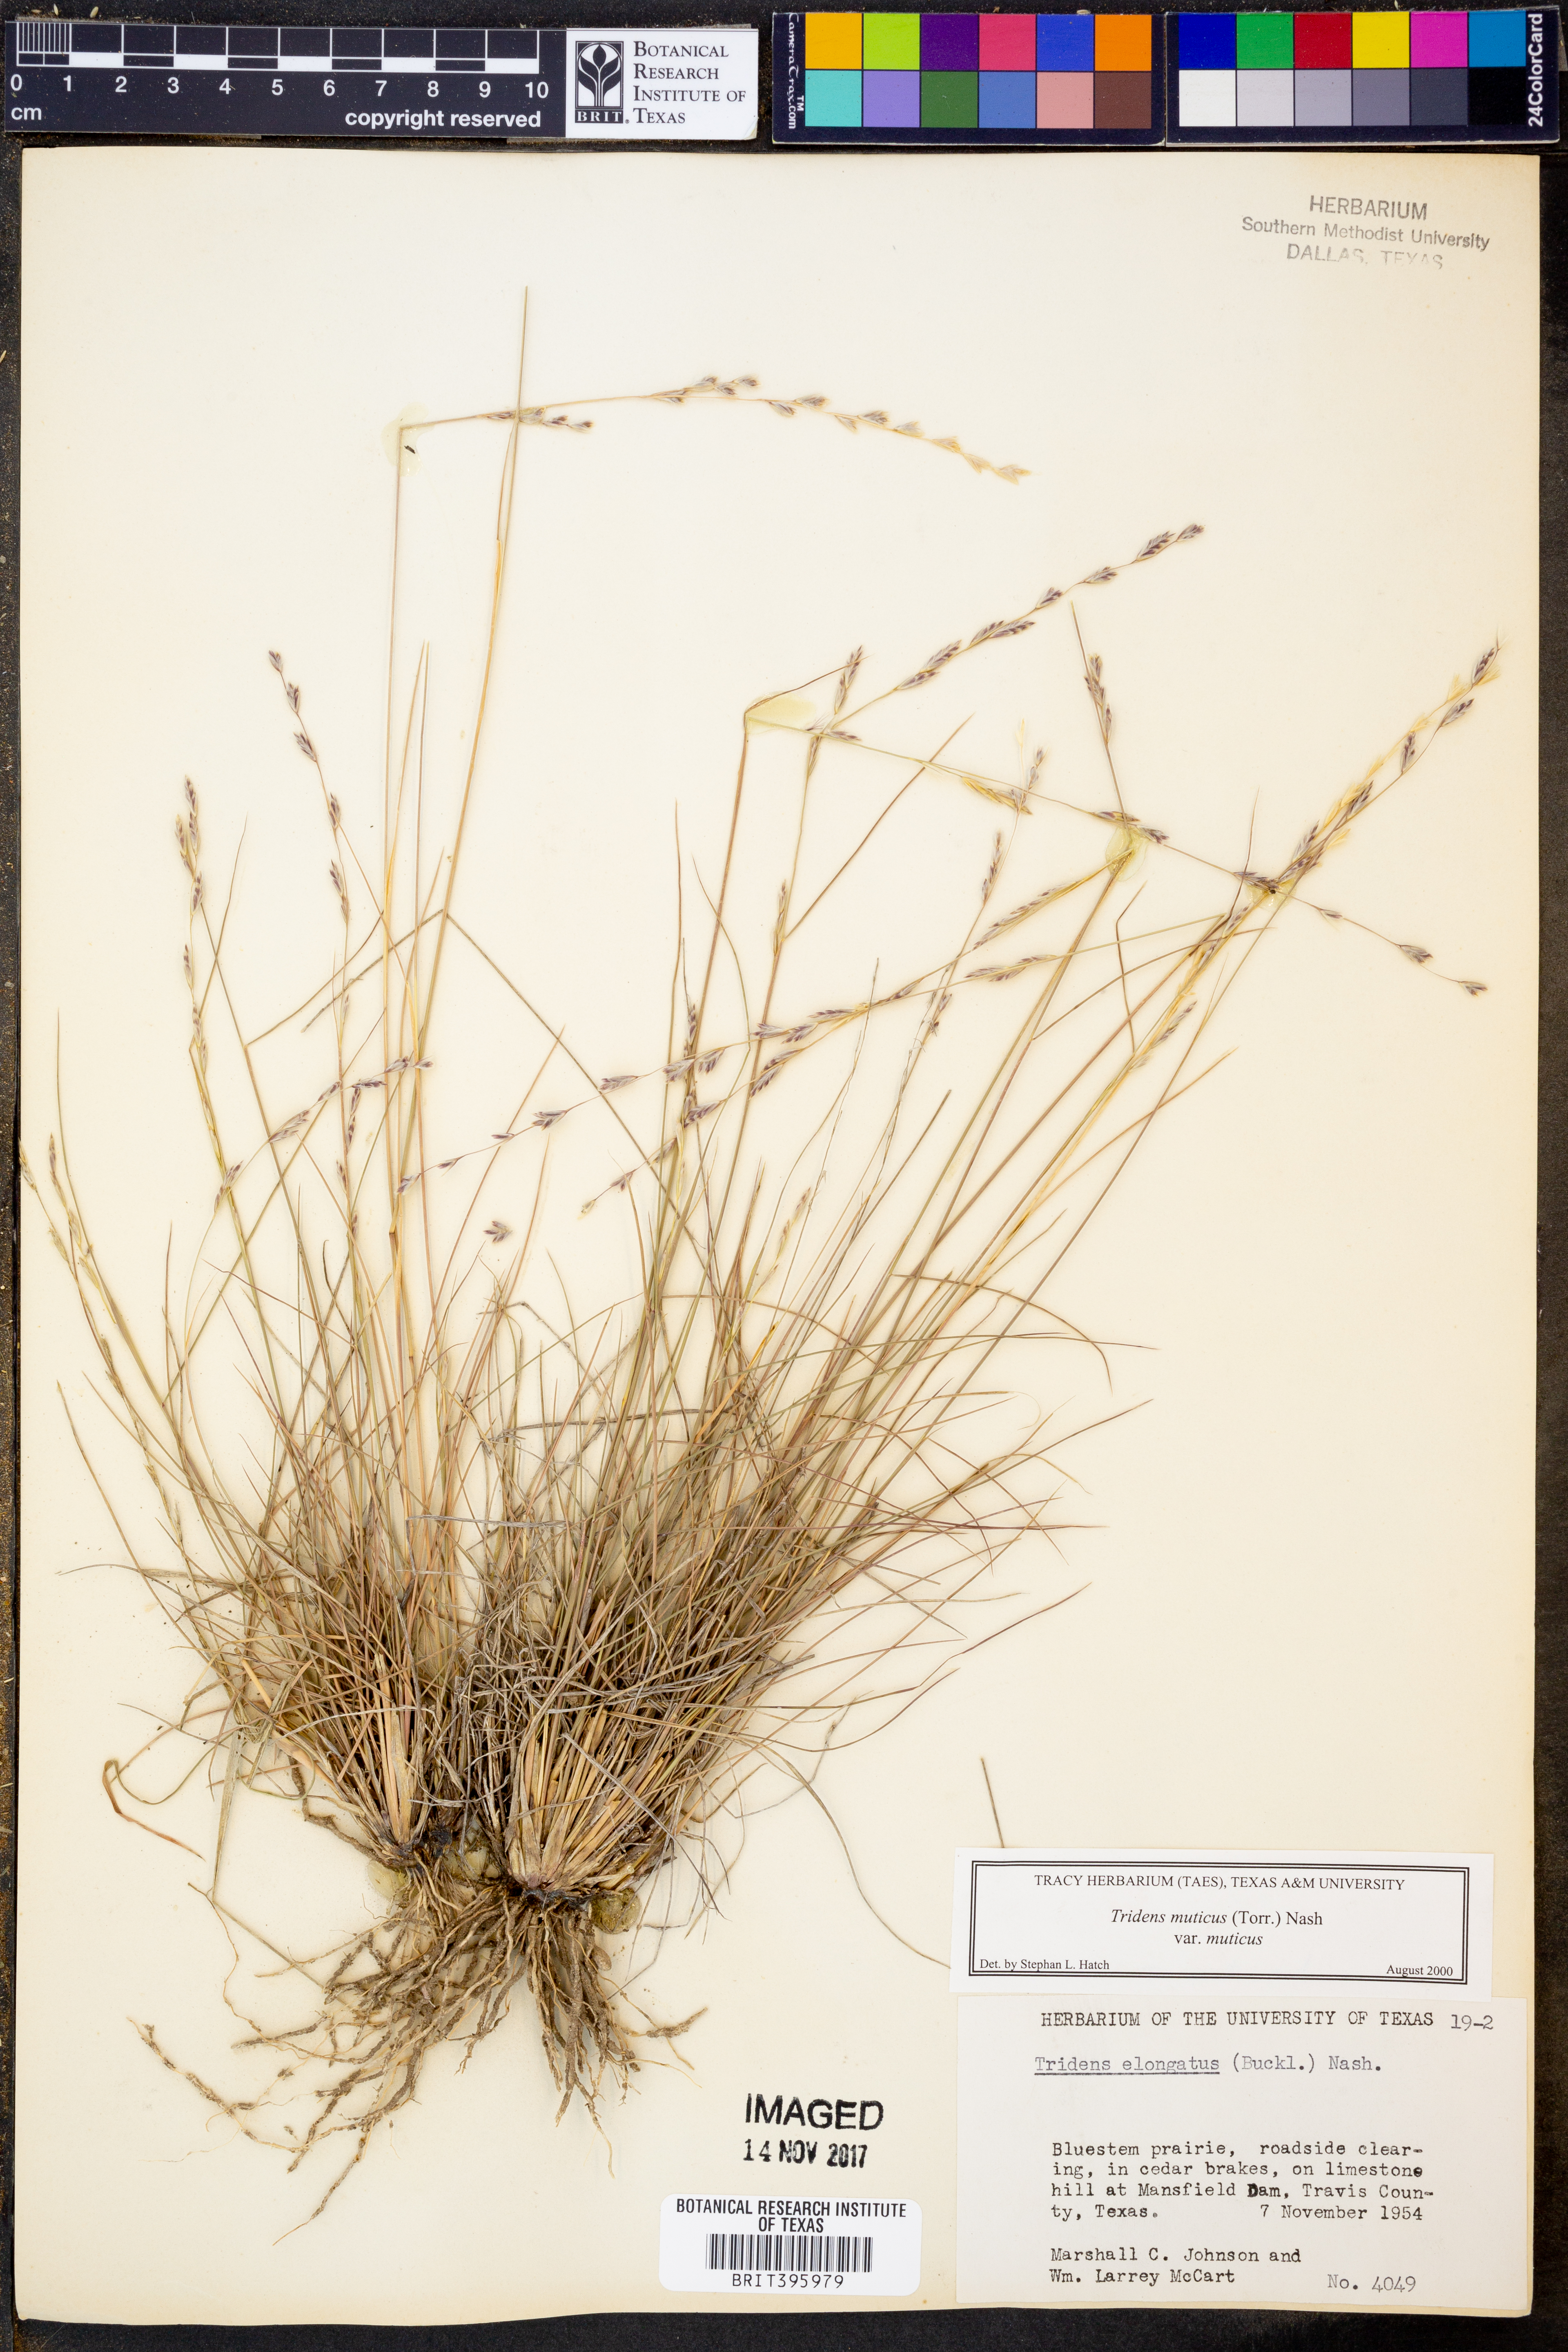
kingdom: Plantae
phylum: Tracheophyta
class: Liliopsida
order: Poales
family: Poaceae
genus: Tridentopsis
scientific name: Tridentopsis mutica
